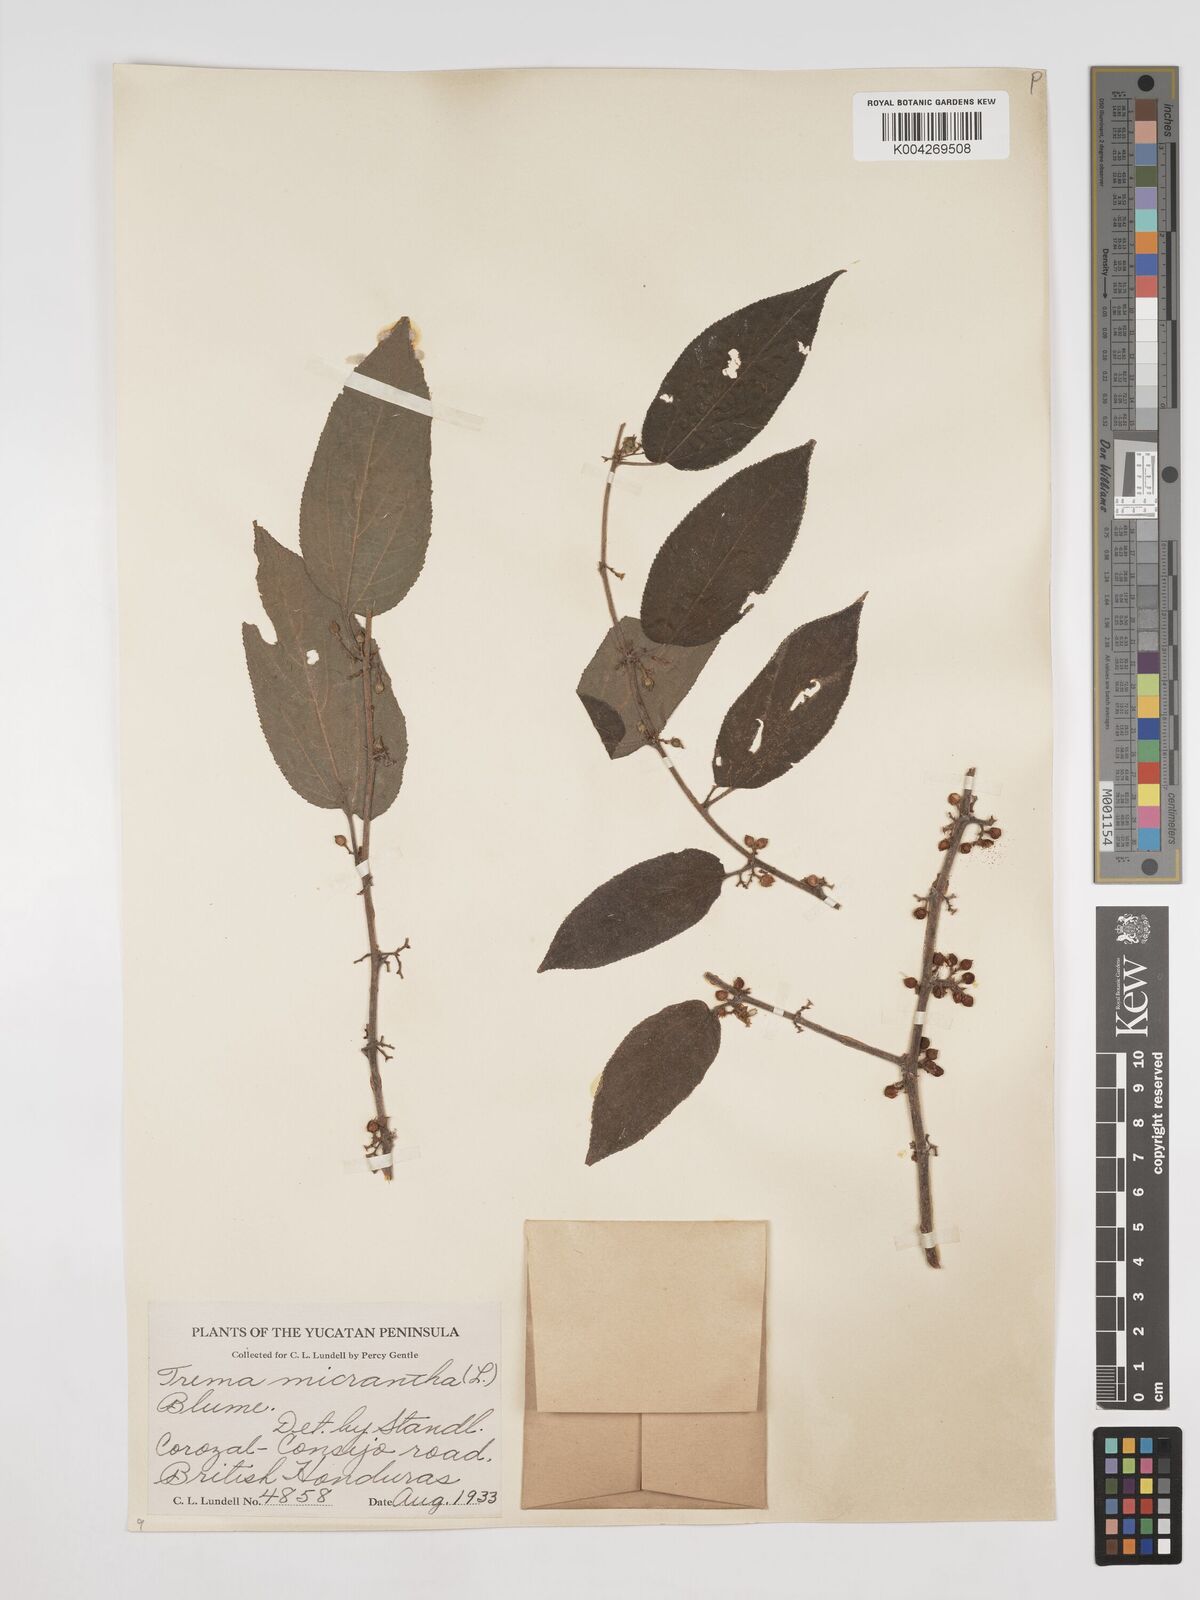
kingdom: Plantae
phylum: Tracheophyta
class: Magnoliopsida
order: Rosales
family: Cannabaceae
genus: Trema
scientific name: Trema micranthum
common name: Jamaican nettletree
